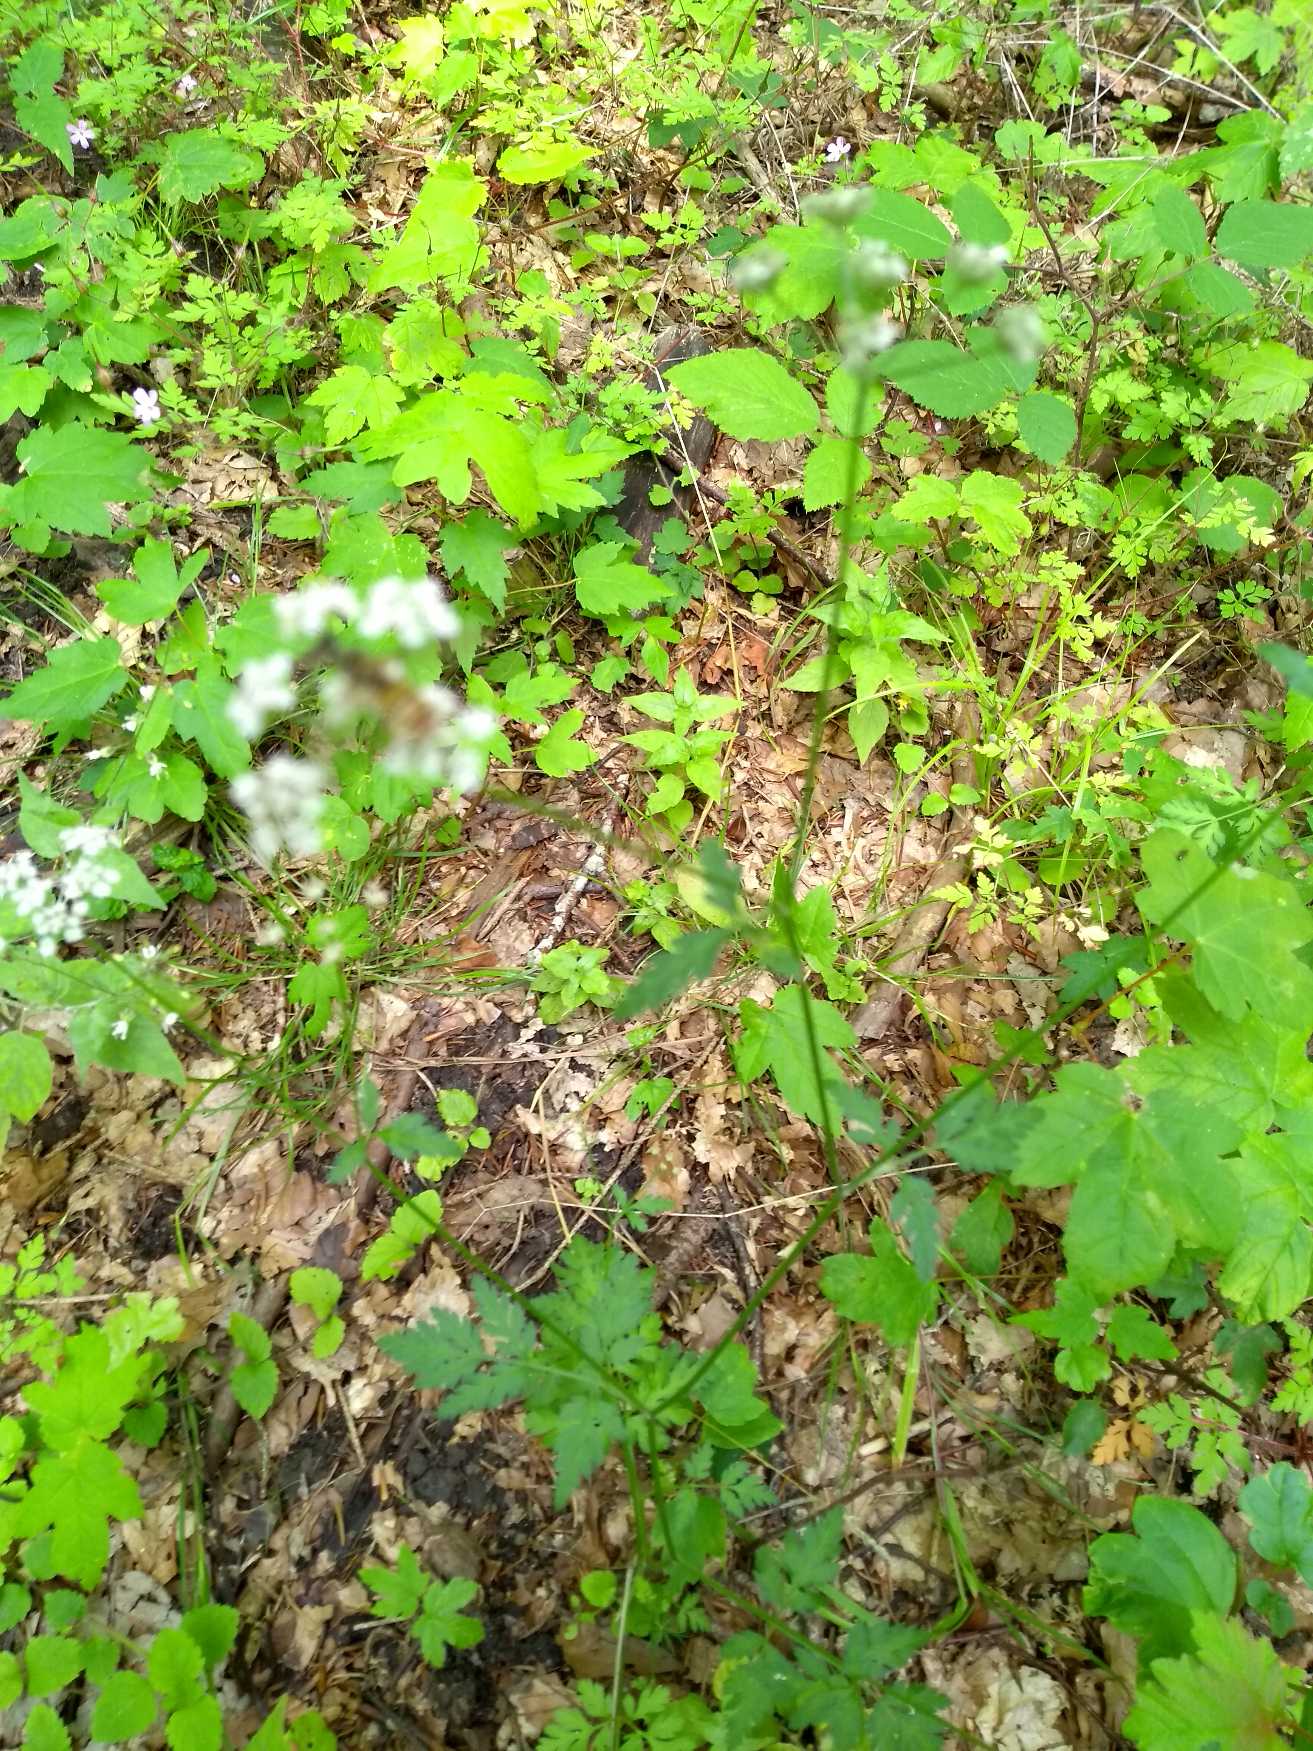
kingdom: Plantae
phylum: Tracheophyta
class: Magnoliopsida
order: Apiales
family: Apiaceae
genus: Torilis
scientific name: Torilis japonica
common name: Hvas randfrø
